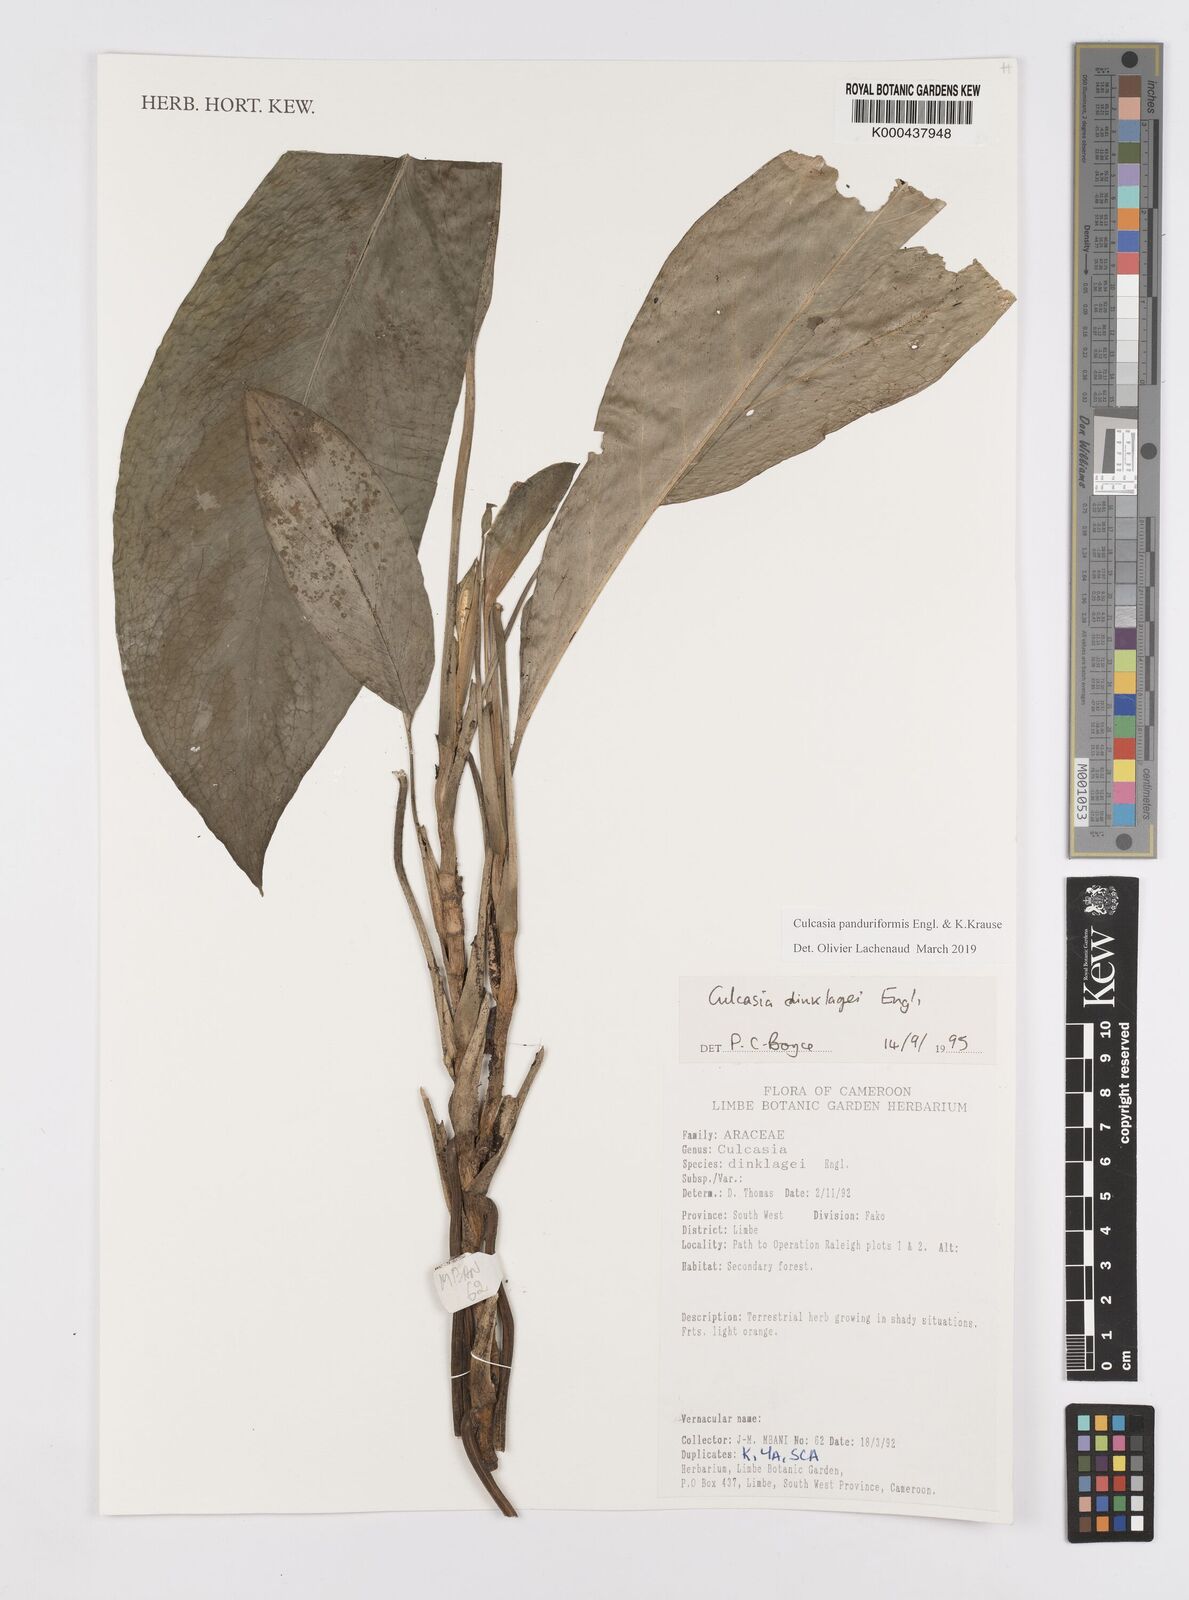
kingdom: Plantae
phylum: Tracheophyta
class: Liliopsida
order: Alismatales
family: Araceae
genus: Culcasia
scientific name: Culcasia panduriformis
